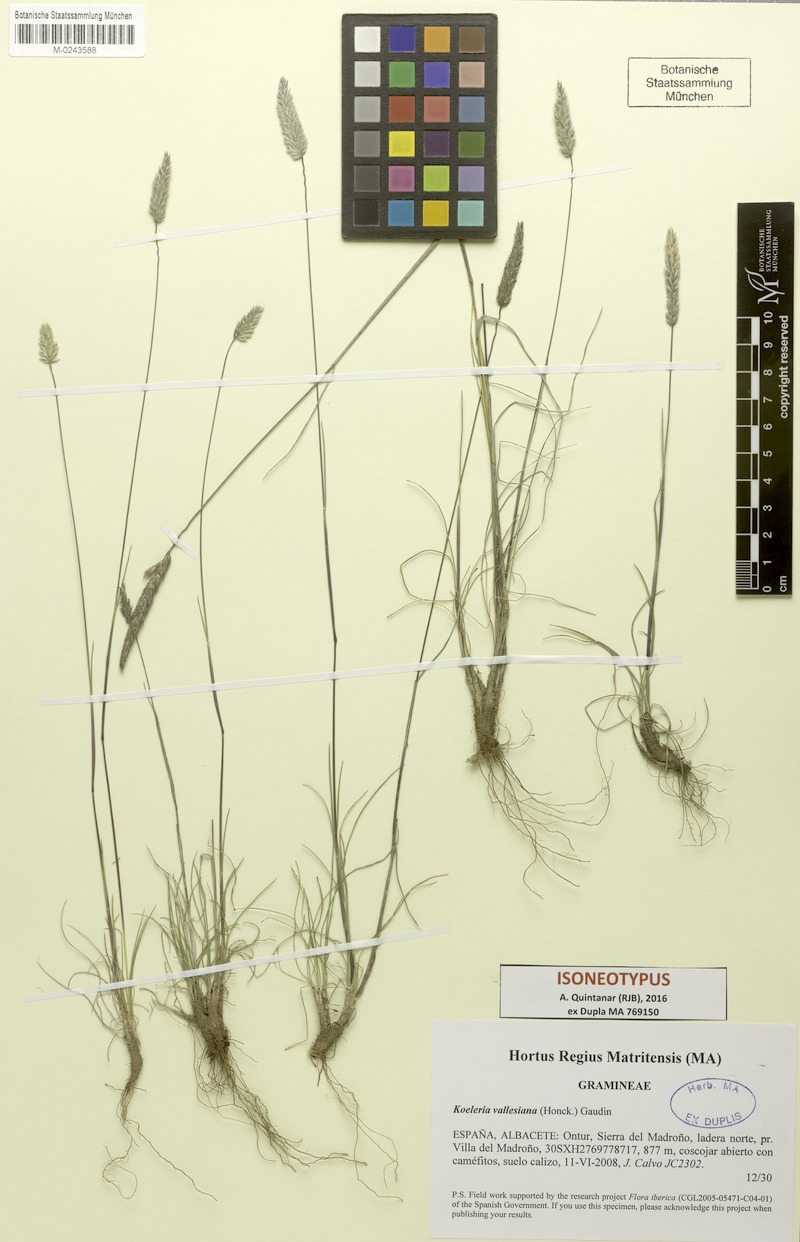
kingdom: Plantae
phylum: Tracheophyta
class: Liliopsida
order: Poales
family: Poaceae
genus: Koeleria
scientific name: Koeleria vallesiana
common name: Somerset hair-grass
